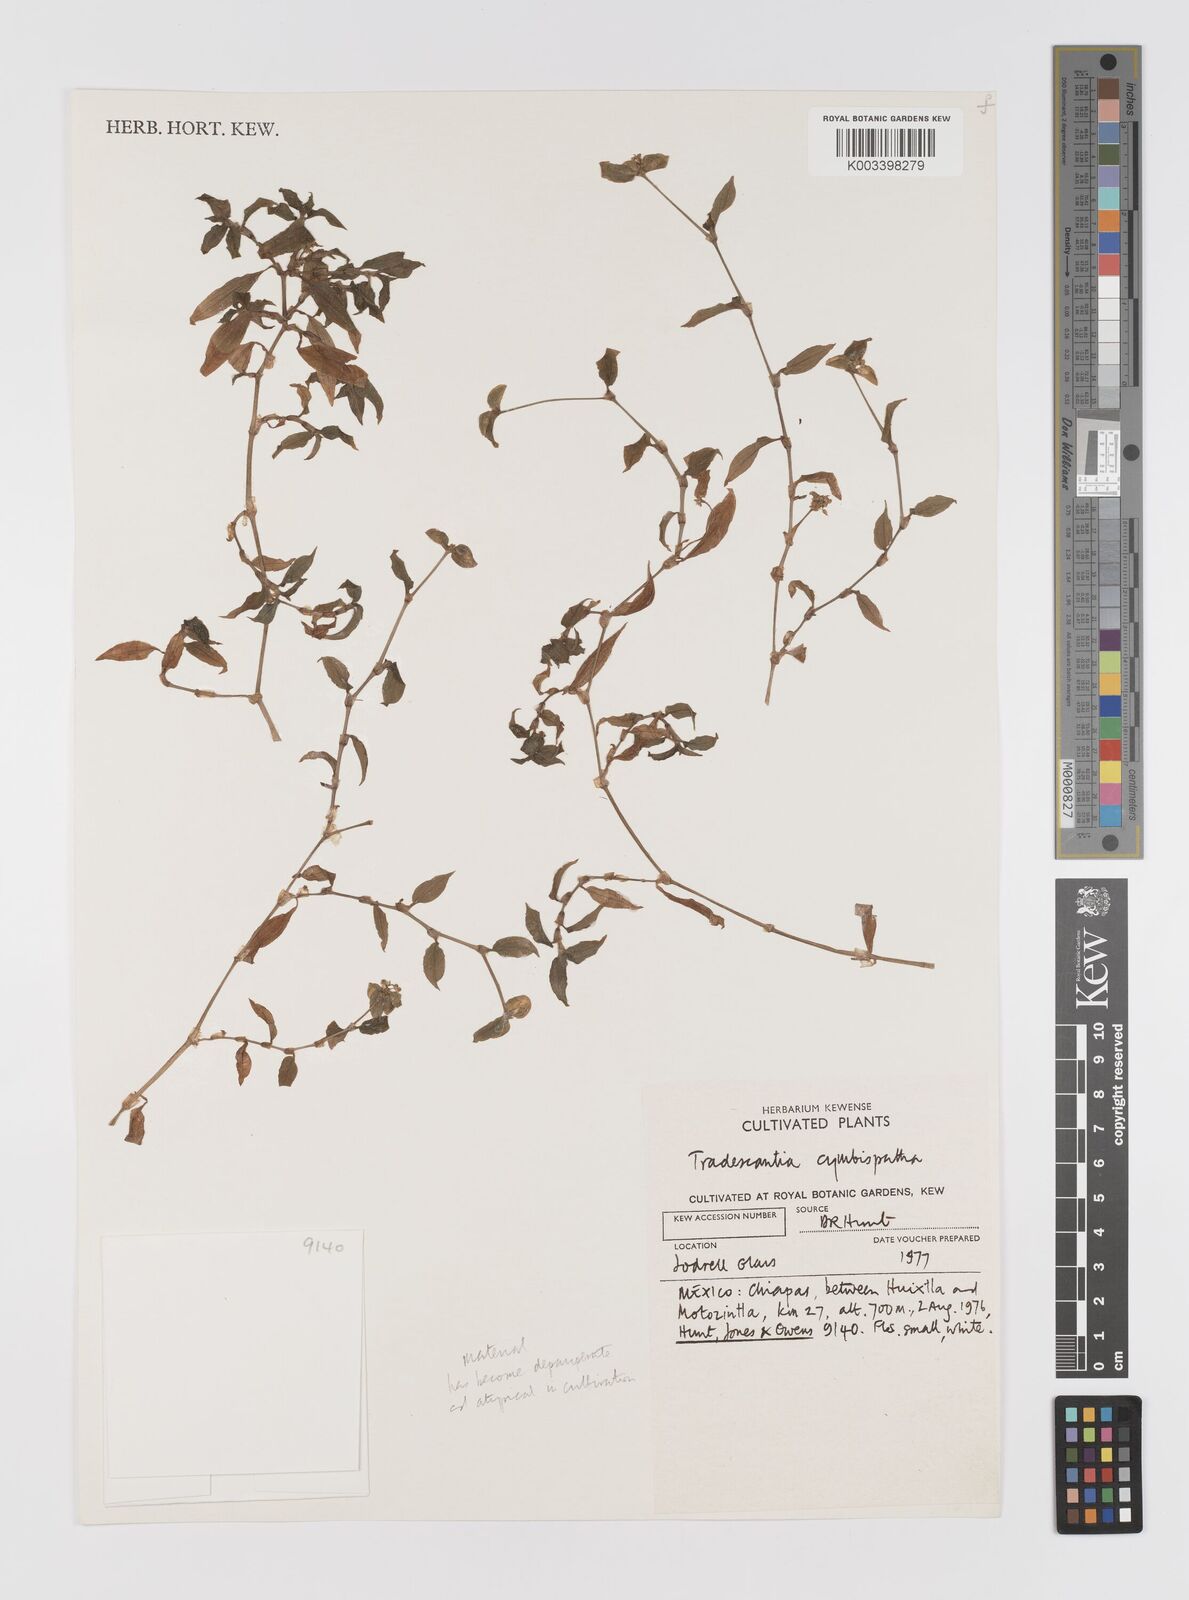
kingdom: Plantae
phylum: Tracheophyta
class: Liliopsida
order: Commelinales
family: Commelinaceae
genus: Tradescantia
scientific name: Tradescantia gracillima
